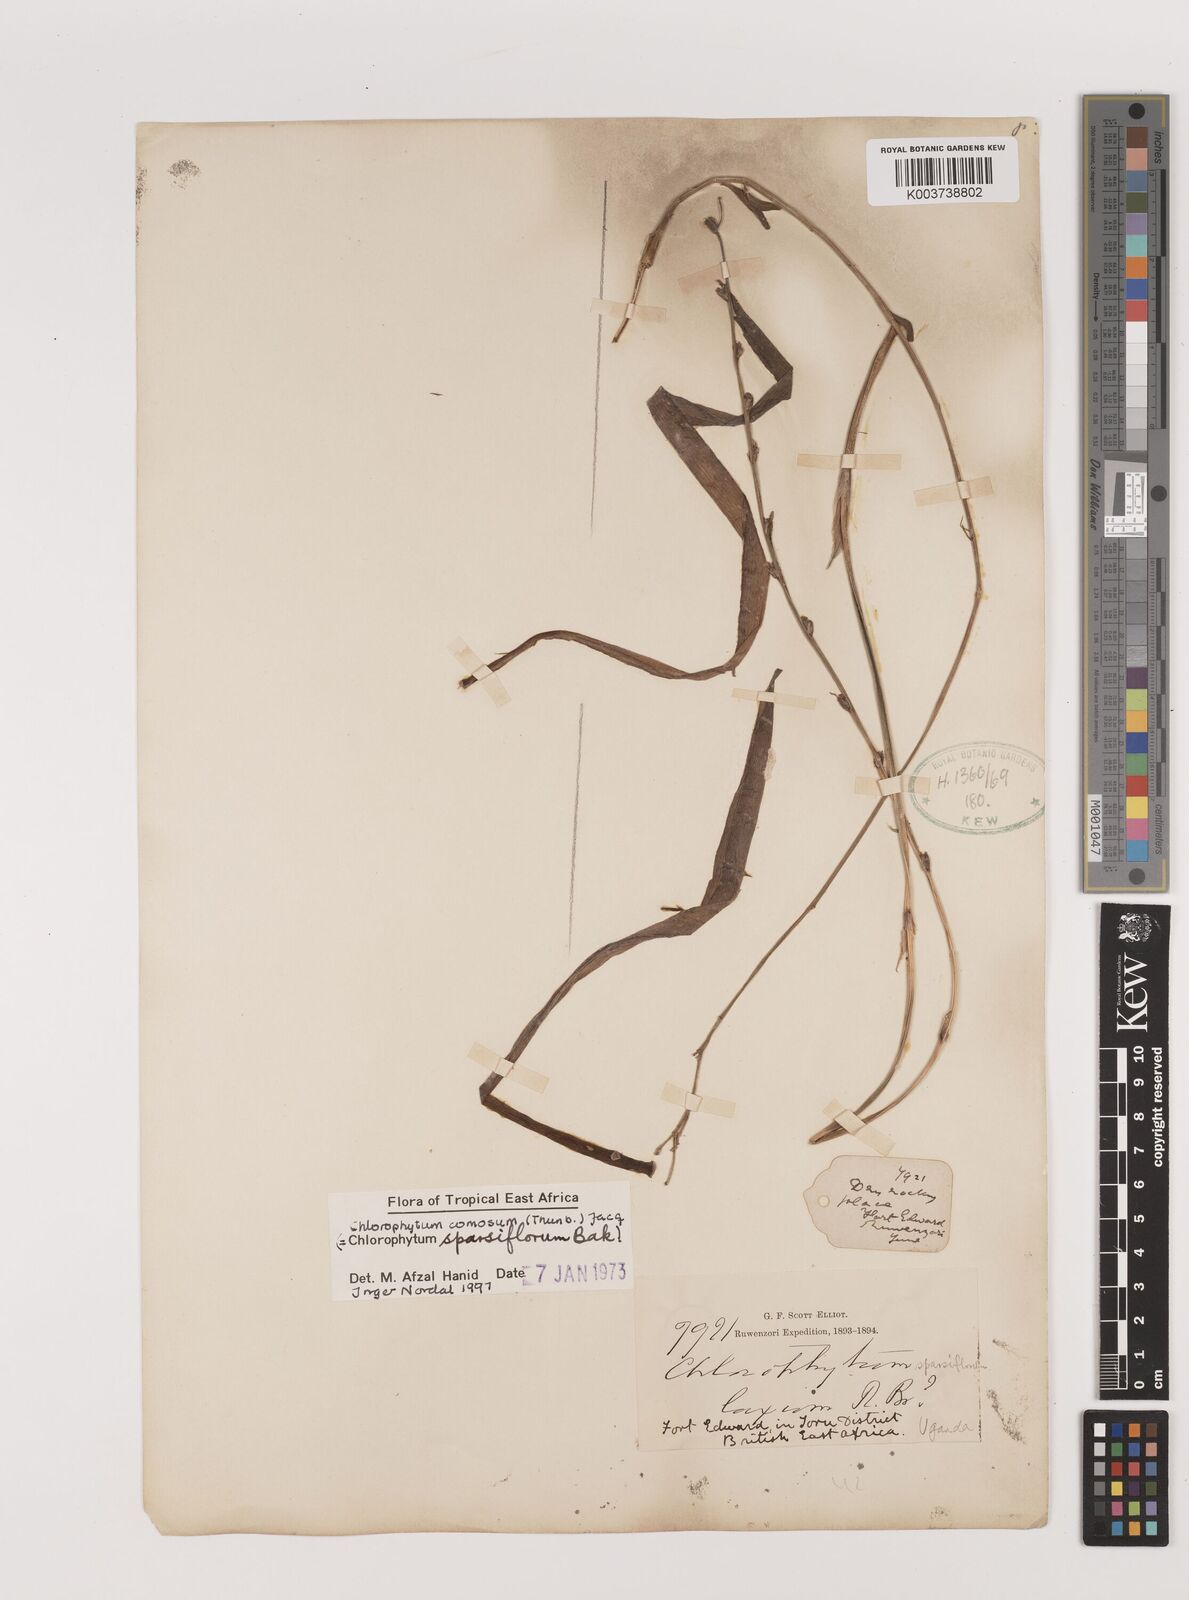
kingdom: Plantae
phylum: Tracheophyta
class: Liliopsida
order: Asparagales
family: Asparagaceae
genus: Chlorophytum
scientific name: Chlorophytum comosum
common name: Spider plant
